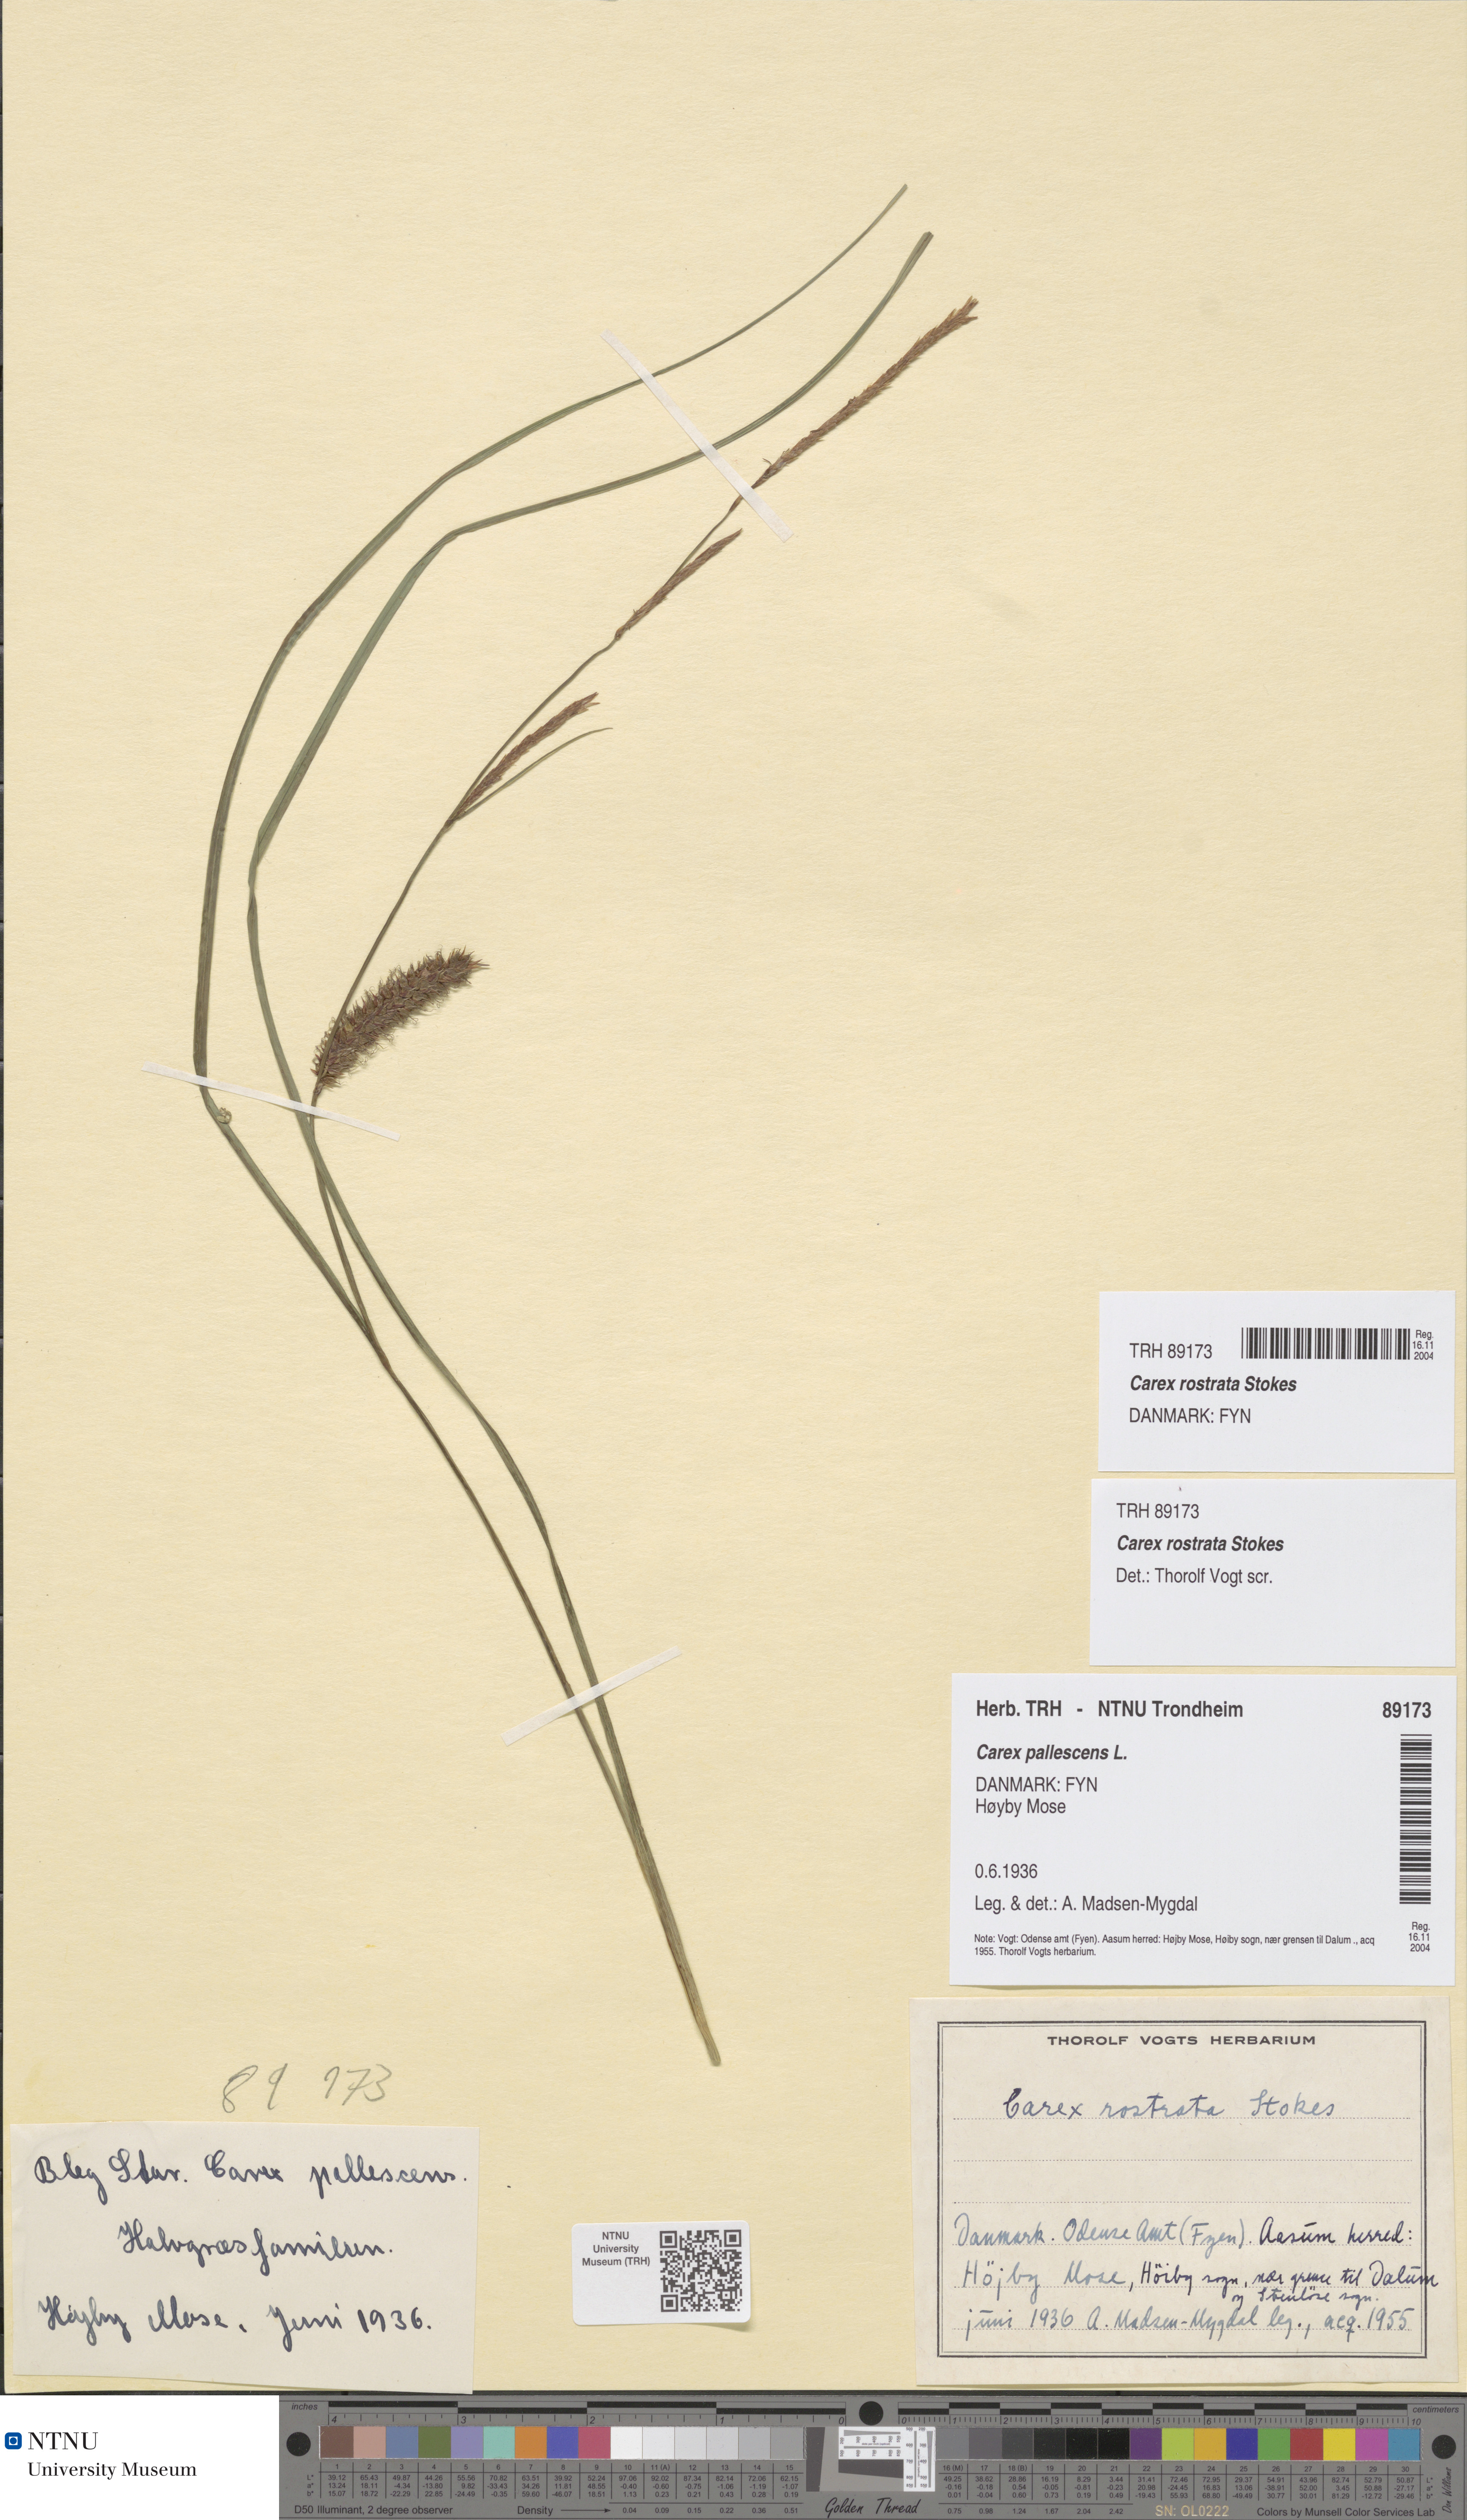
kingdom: Plantae
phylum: Tracheophyta
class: Liliopsida
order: Poales
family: Cyperaceae
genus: Carex
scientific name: Carex rostrata
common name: Bottle sedge
